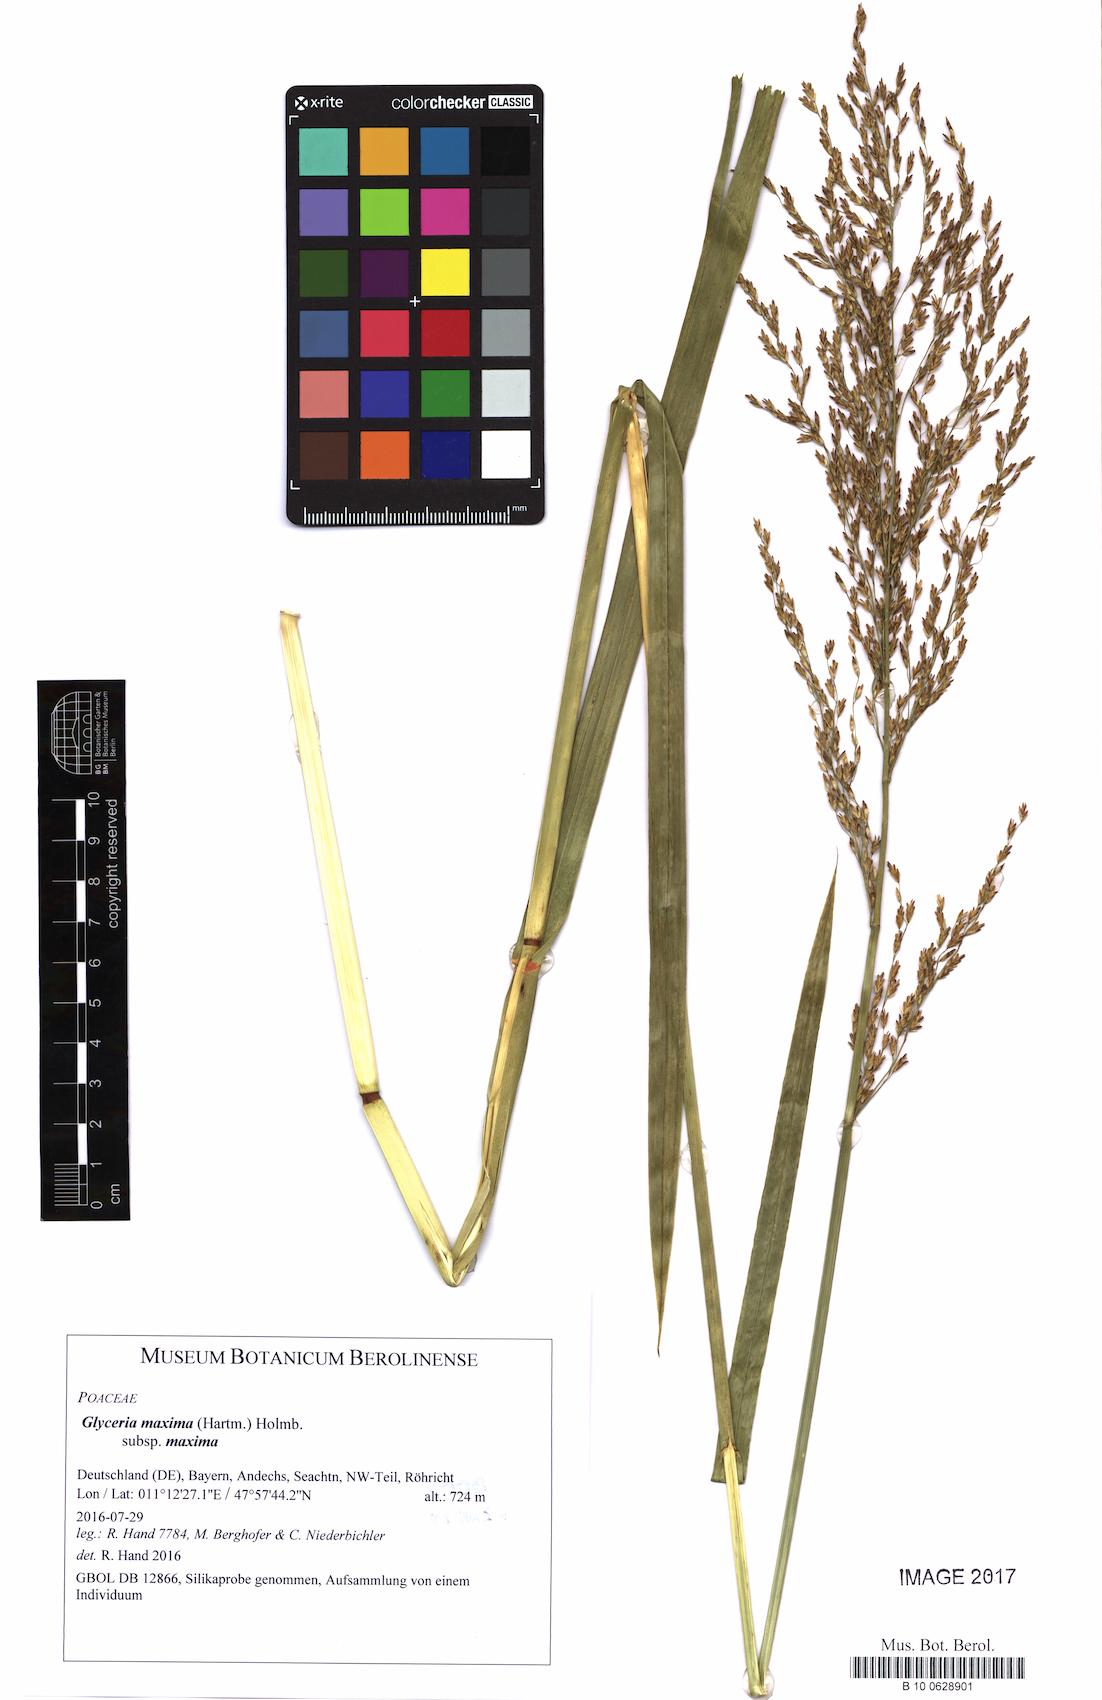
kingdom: Plantae
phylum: Tracheophyta
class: Liliopsida
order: Poales
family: Poaceae
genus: Glyceria
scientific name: Glyceria maxima
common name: Reed mannagrass
